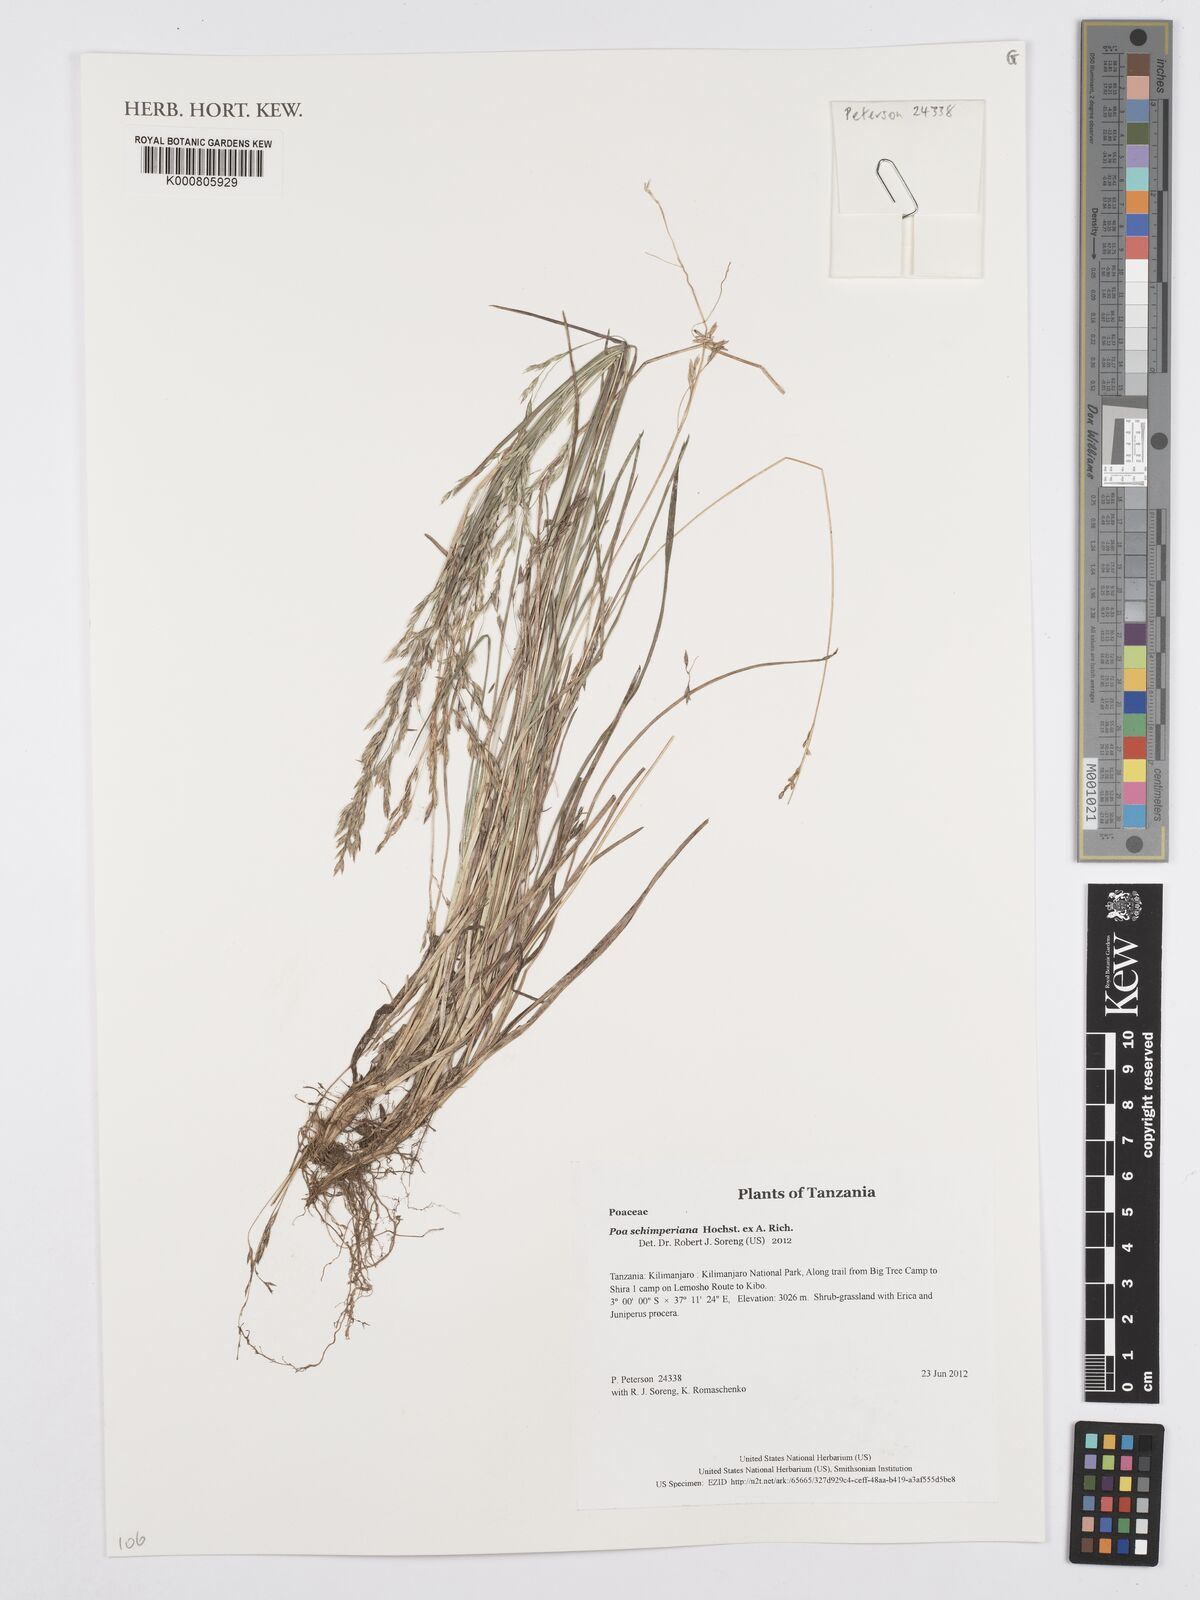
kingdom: Plantae
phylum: Tracheophyta
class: Liliopsida
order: Poales
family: Poaceae
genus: Poa
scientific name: Poa schimperiana
